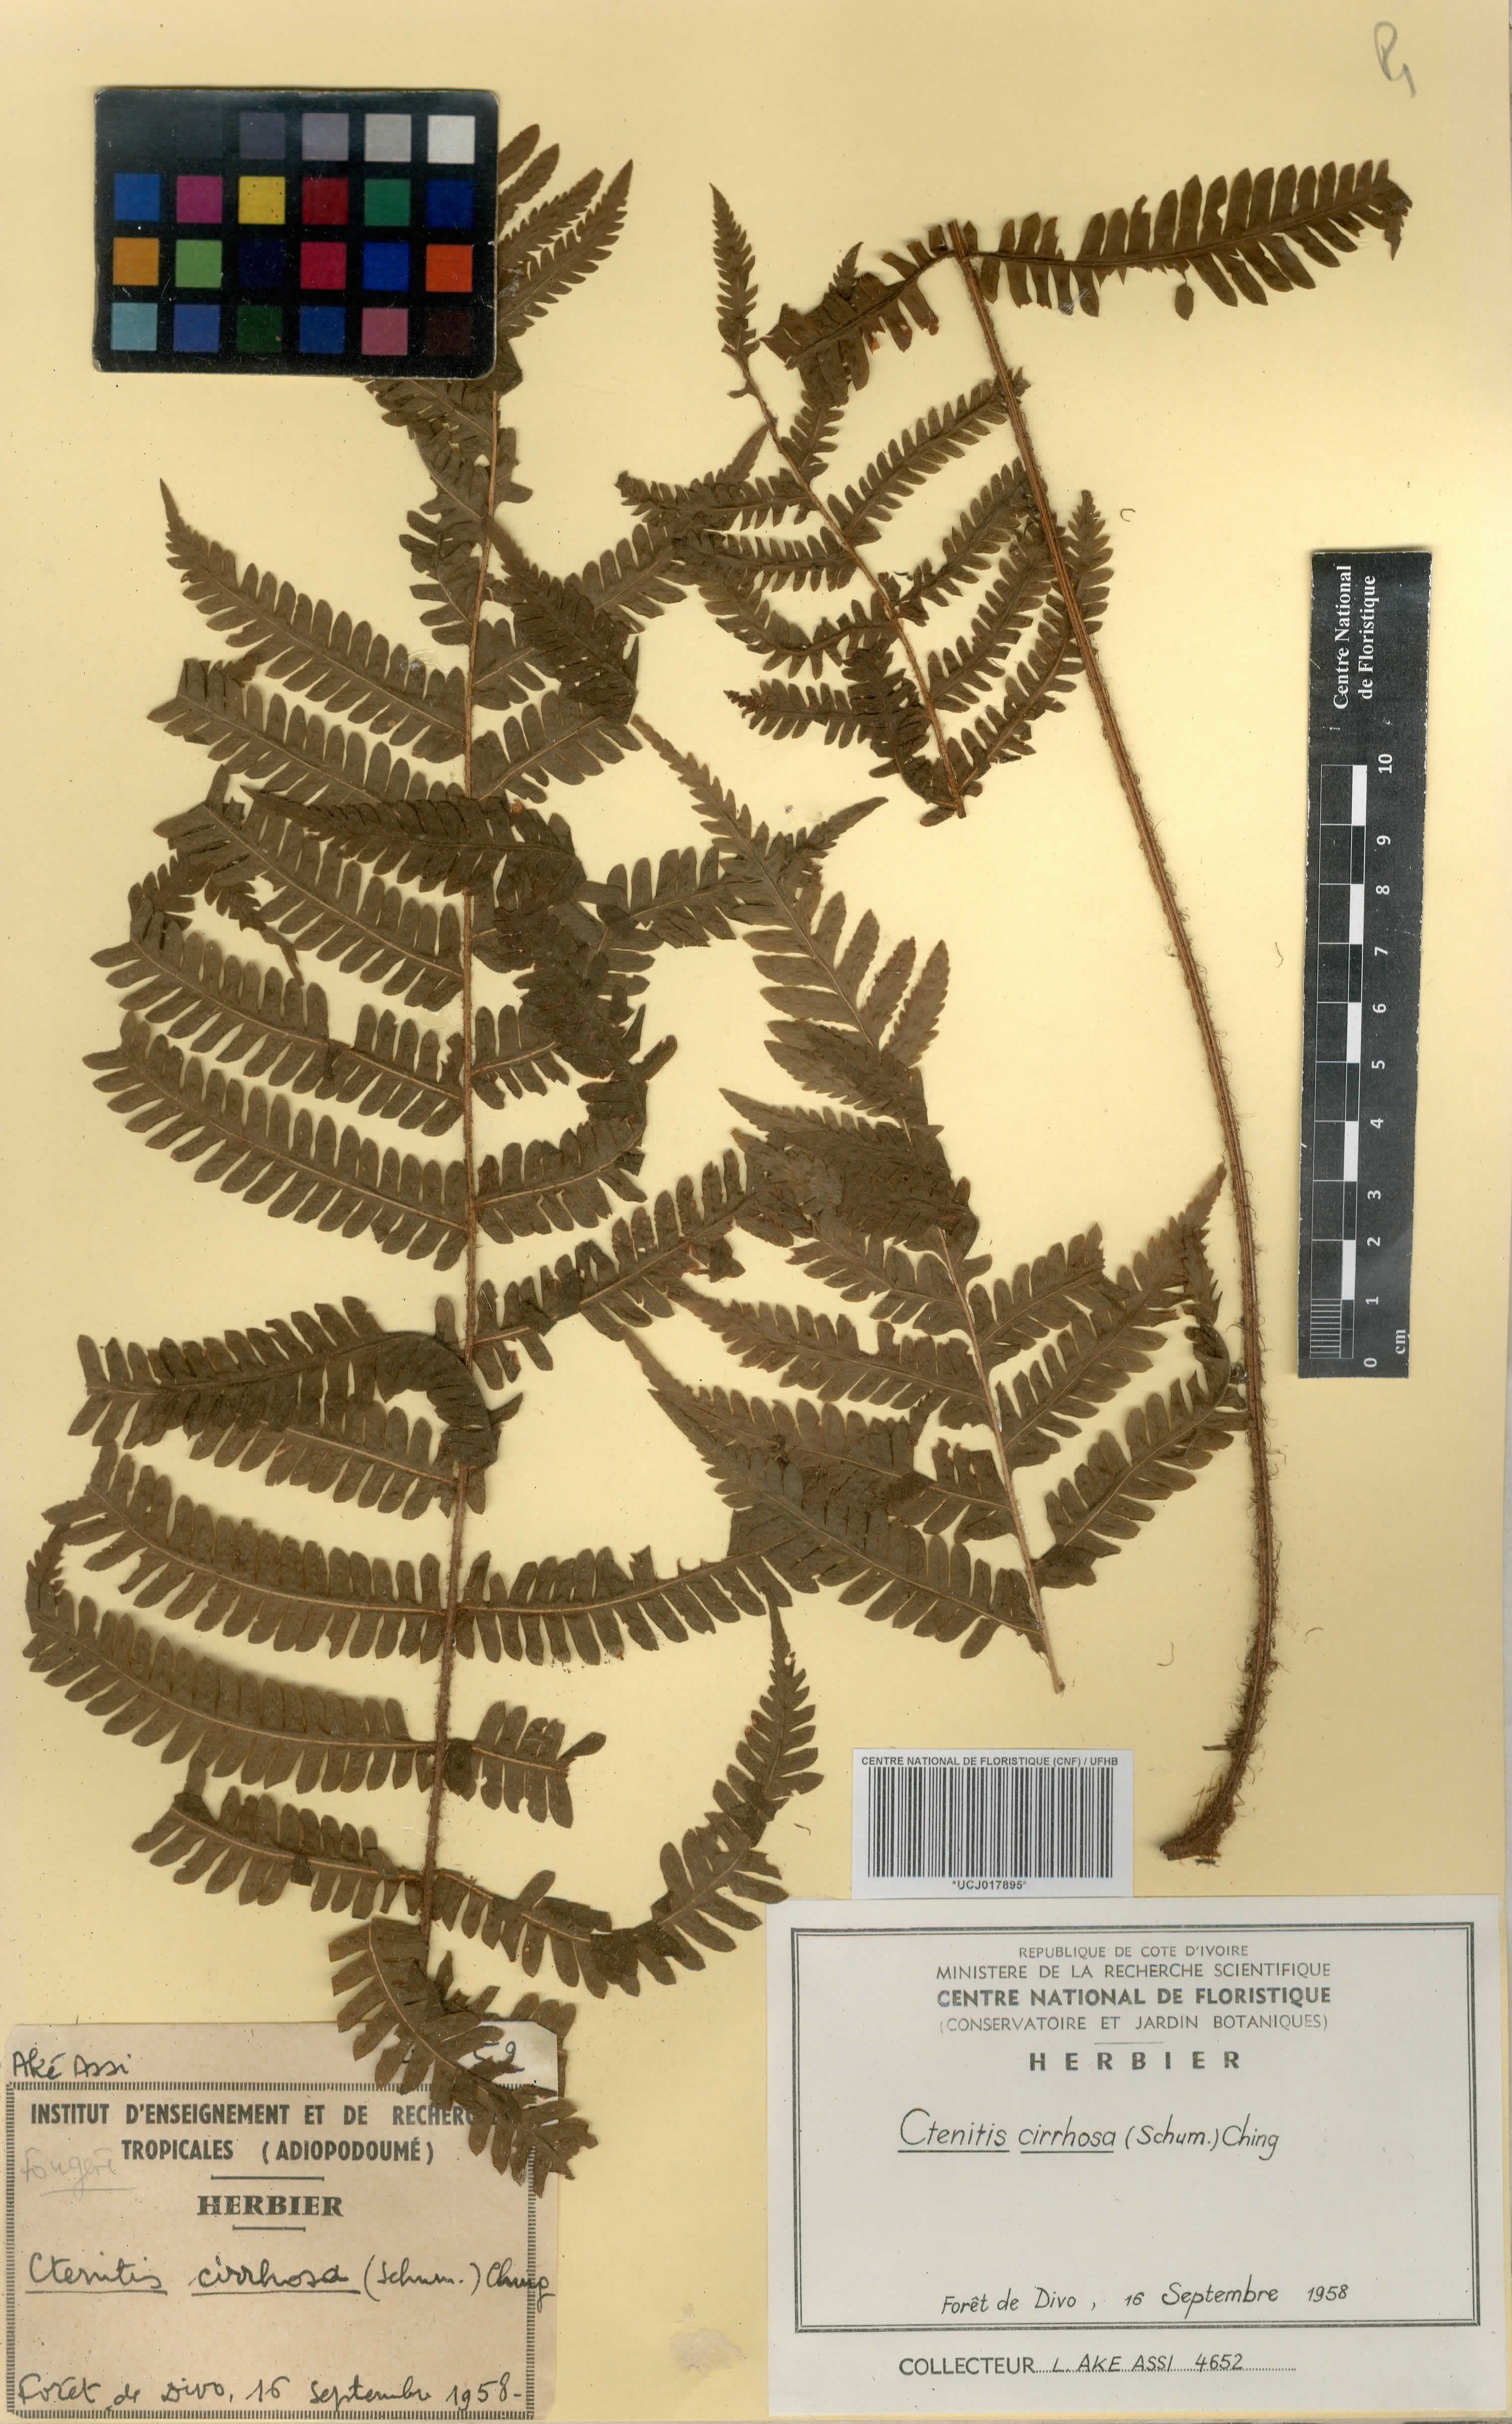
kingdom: Plantae
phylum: Tracheophyta
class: Polypodiopsida
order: Polypodiales
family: Dryopteridaceae
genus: Ctenitis
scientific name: Ctenitis cirrhosa
